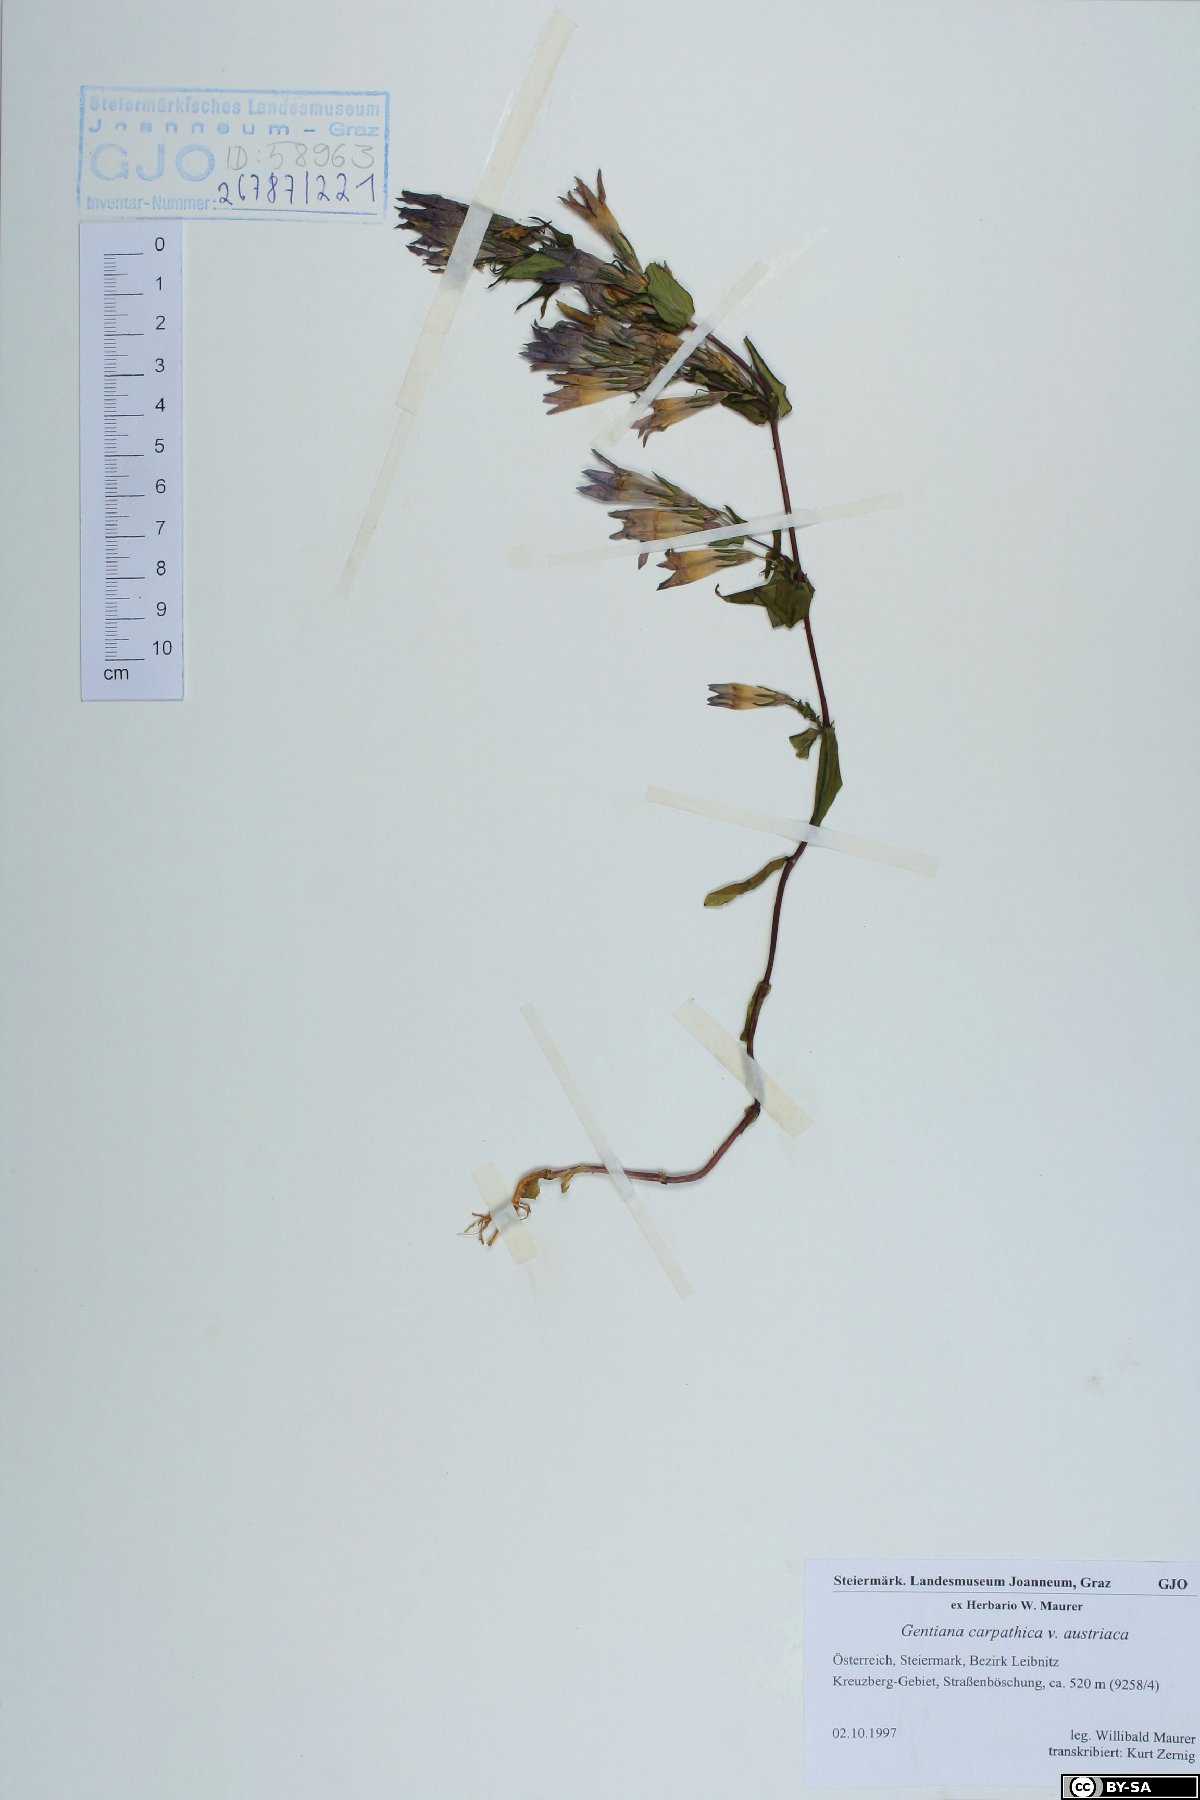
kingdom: Plantae
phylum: Tracheophyta
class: Magnoliopsida
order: Gentianales
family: Gentianaceae
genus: Gentianella
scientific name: Gentianella praecox
